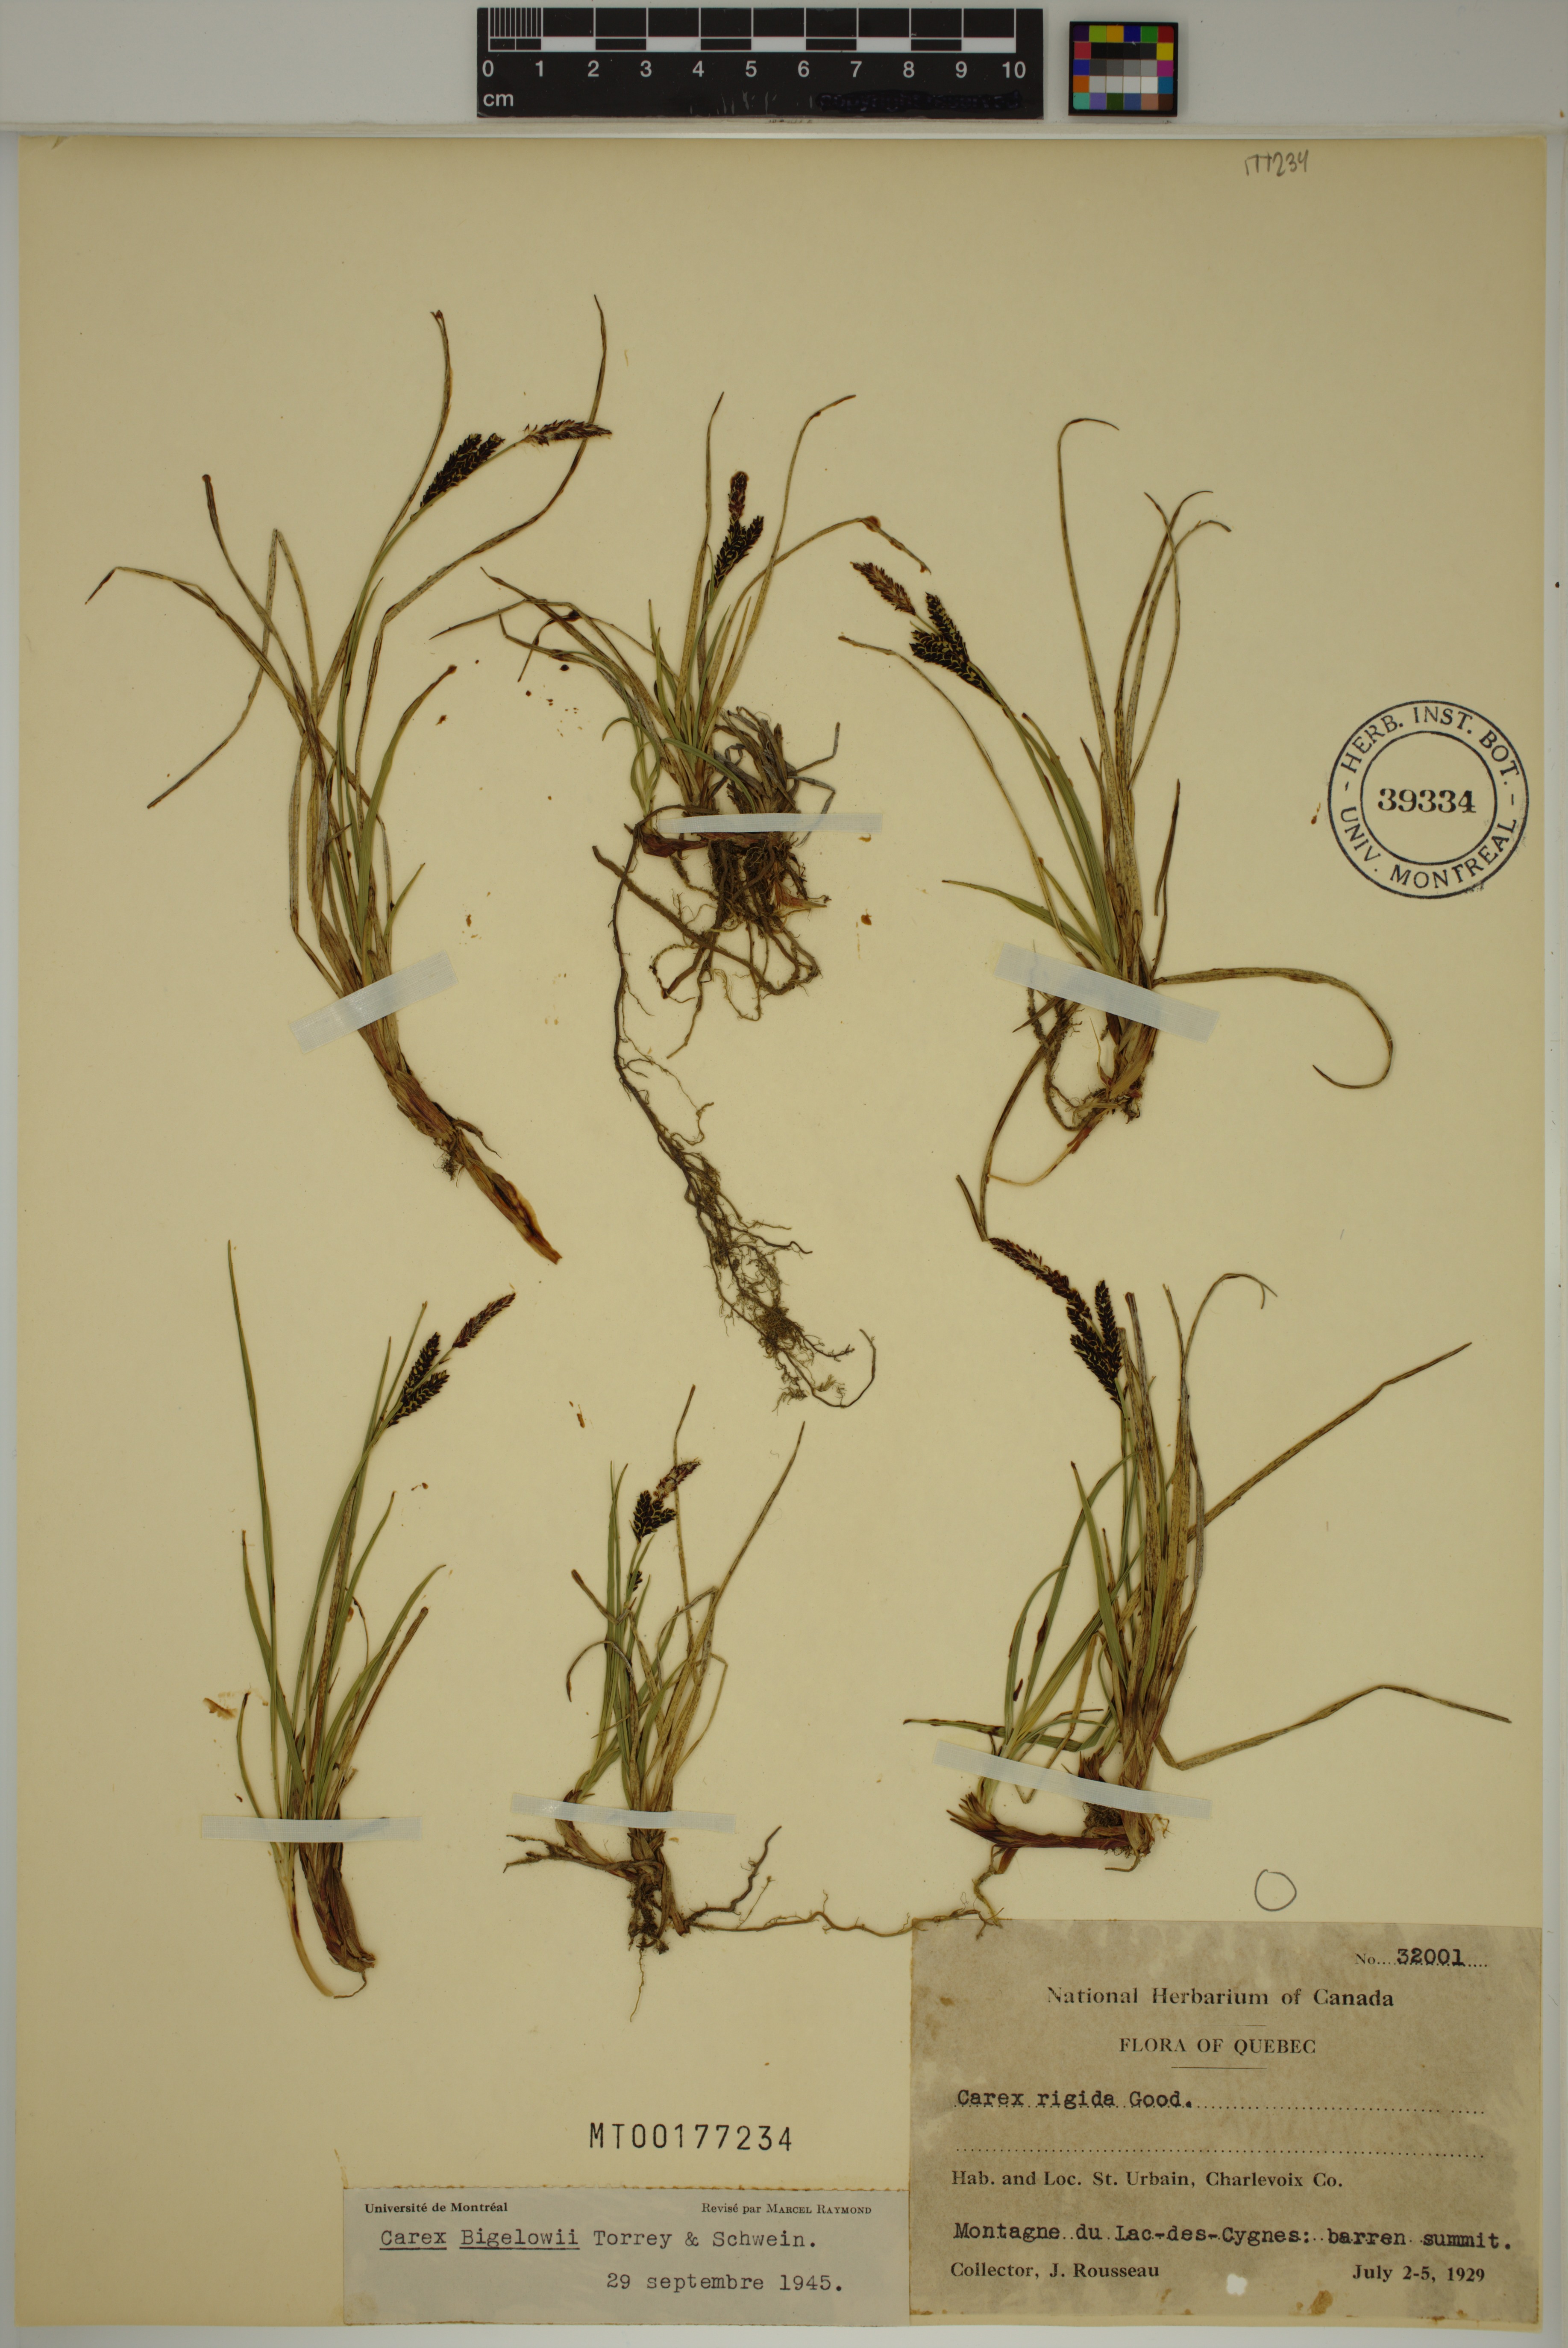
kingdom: Plantae
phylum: Tracheophyta
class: Liliopsida
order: Poales
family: Cyperaceae
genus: Carex
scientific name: Carex bigelowii
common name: Stiff sedge
